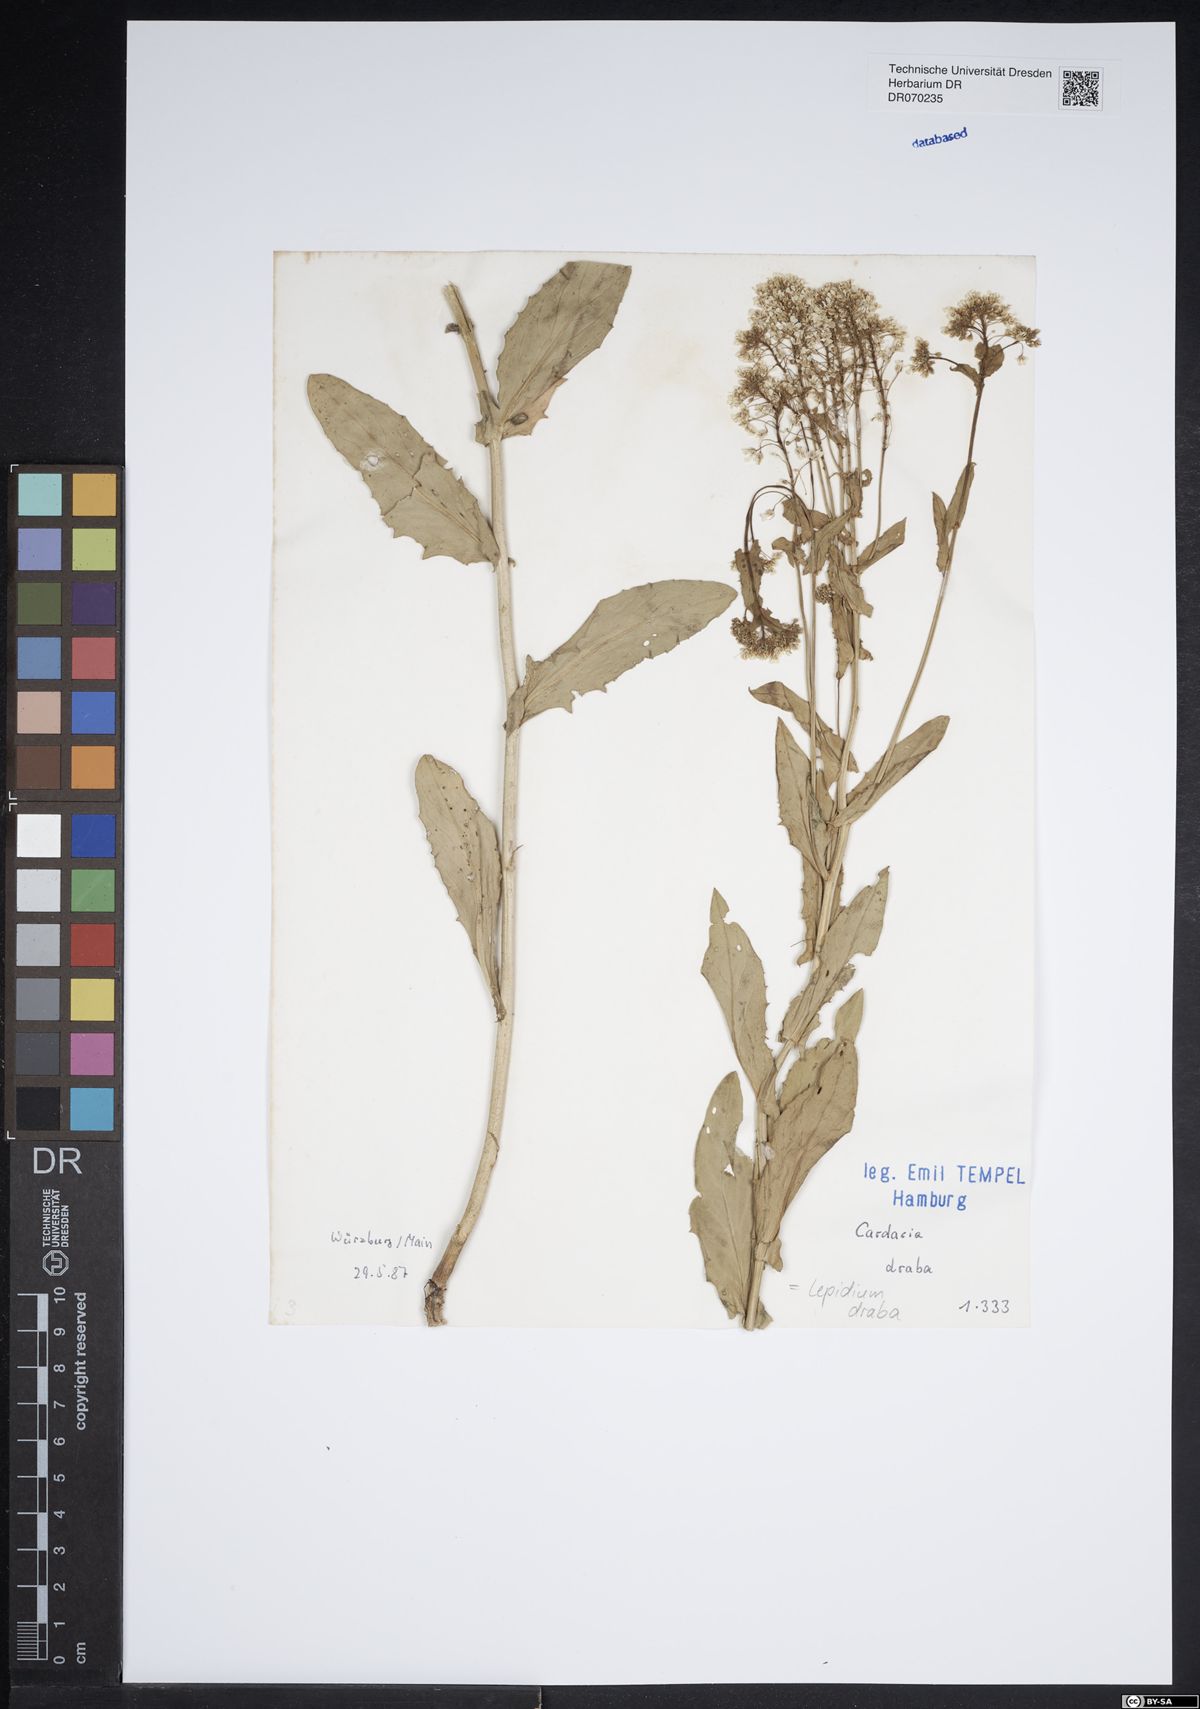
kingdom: Plantae
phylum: Tracheophyta
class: Magnoliopsida
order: Brassicales
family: Brassicaceae
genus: Lepidium
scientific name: Lepidium draba
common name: Hoary cress
